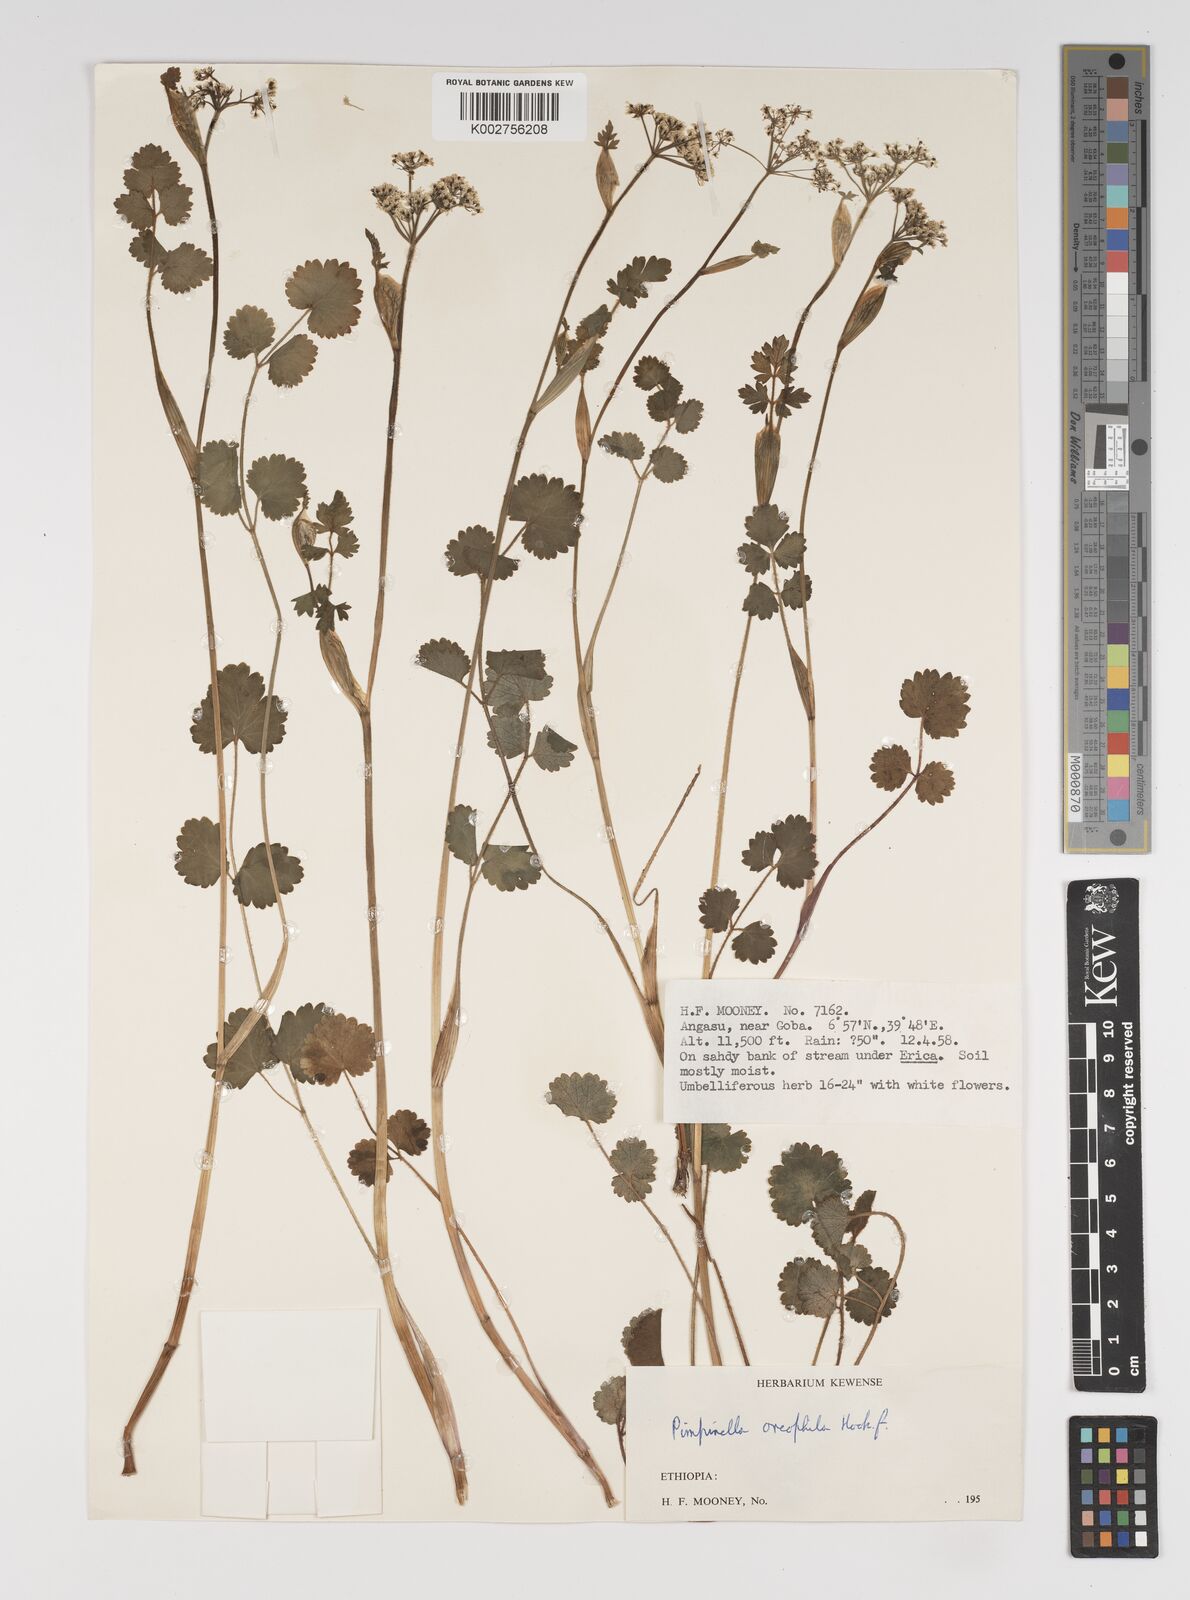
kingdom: Plantae
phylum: Tracheophyta
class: Magnoliopsida
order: Apiales
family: Apiaceae
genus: Pimpinella
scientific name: Pimpinella oreophila
